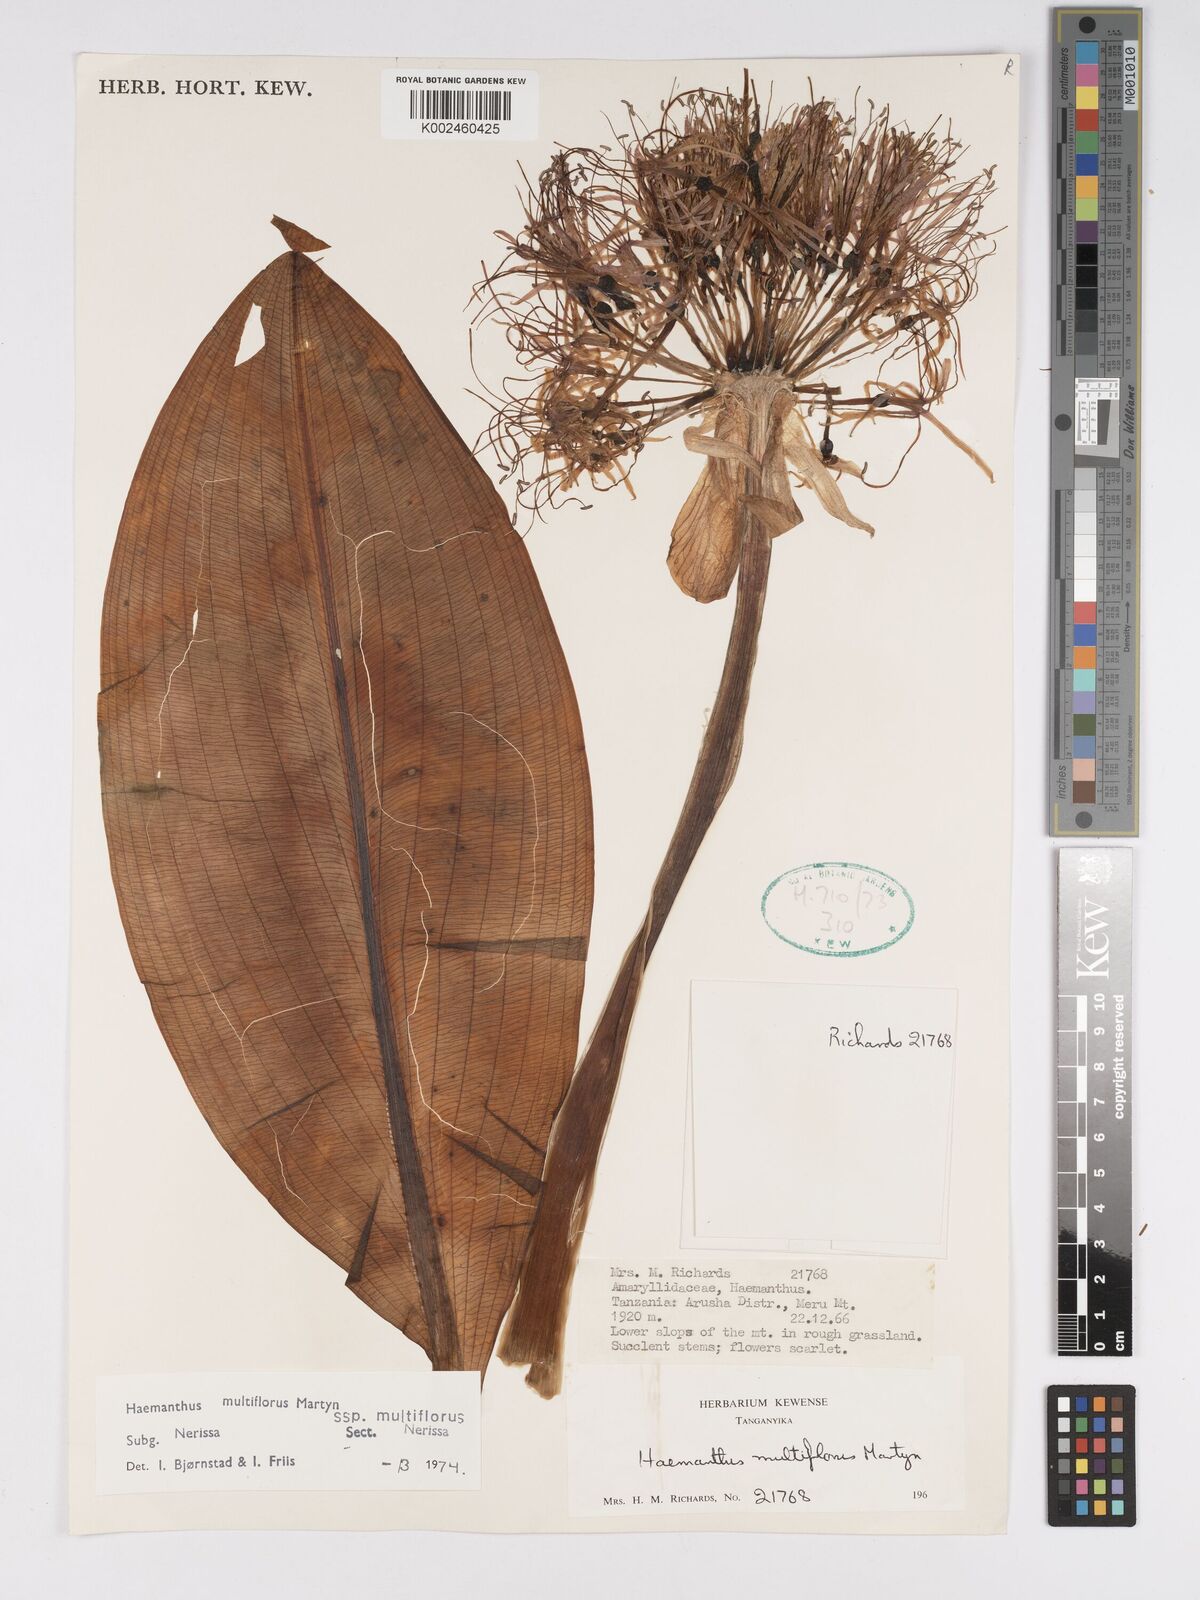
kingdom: Plantae
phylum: Tracheophyta
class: Liliopsida
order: Asparagales
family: Amaryllidaceae
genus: Scadoxus
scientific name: Scadoxus multiflorus
